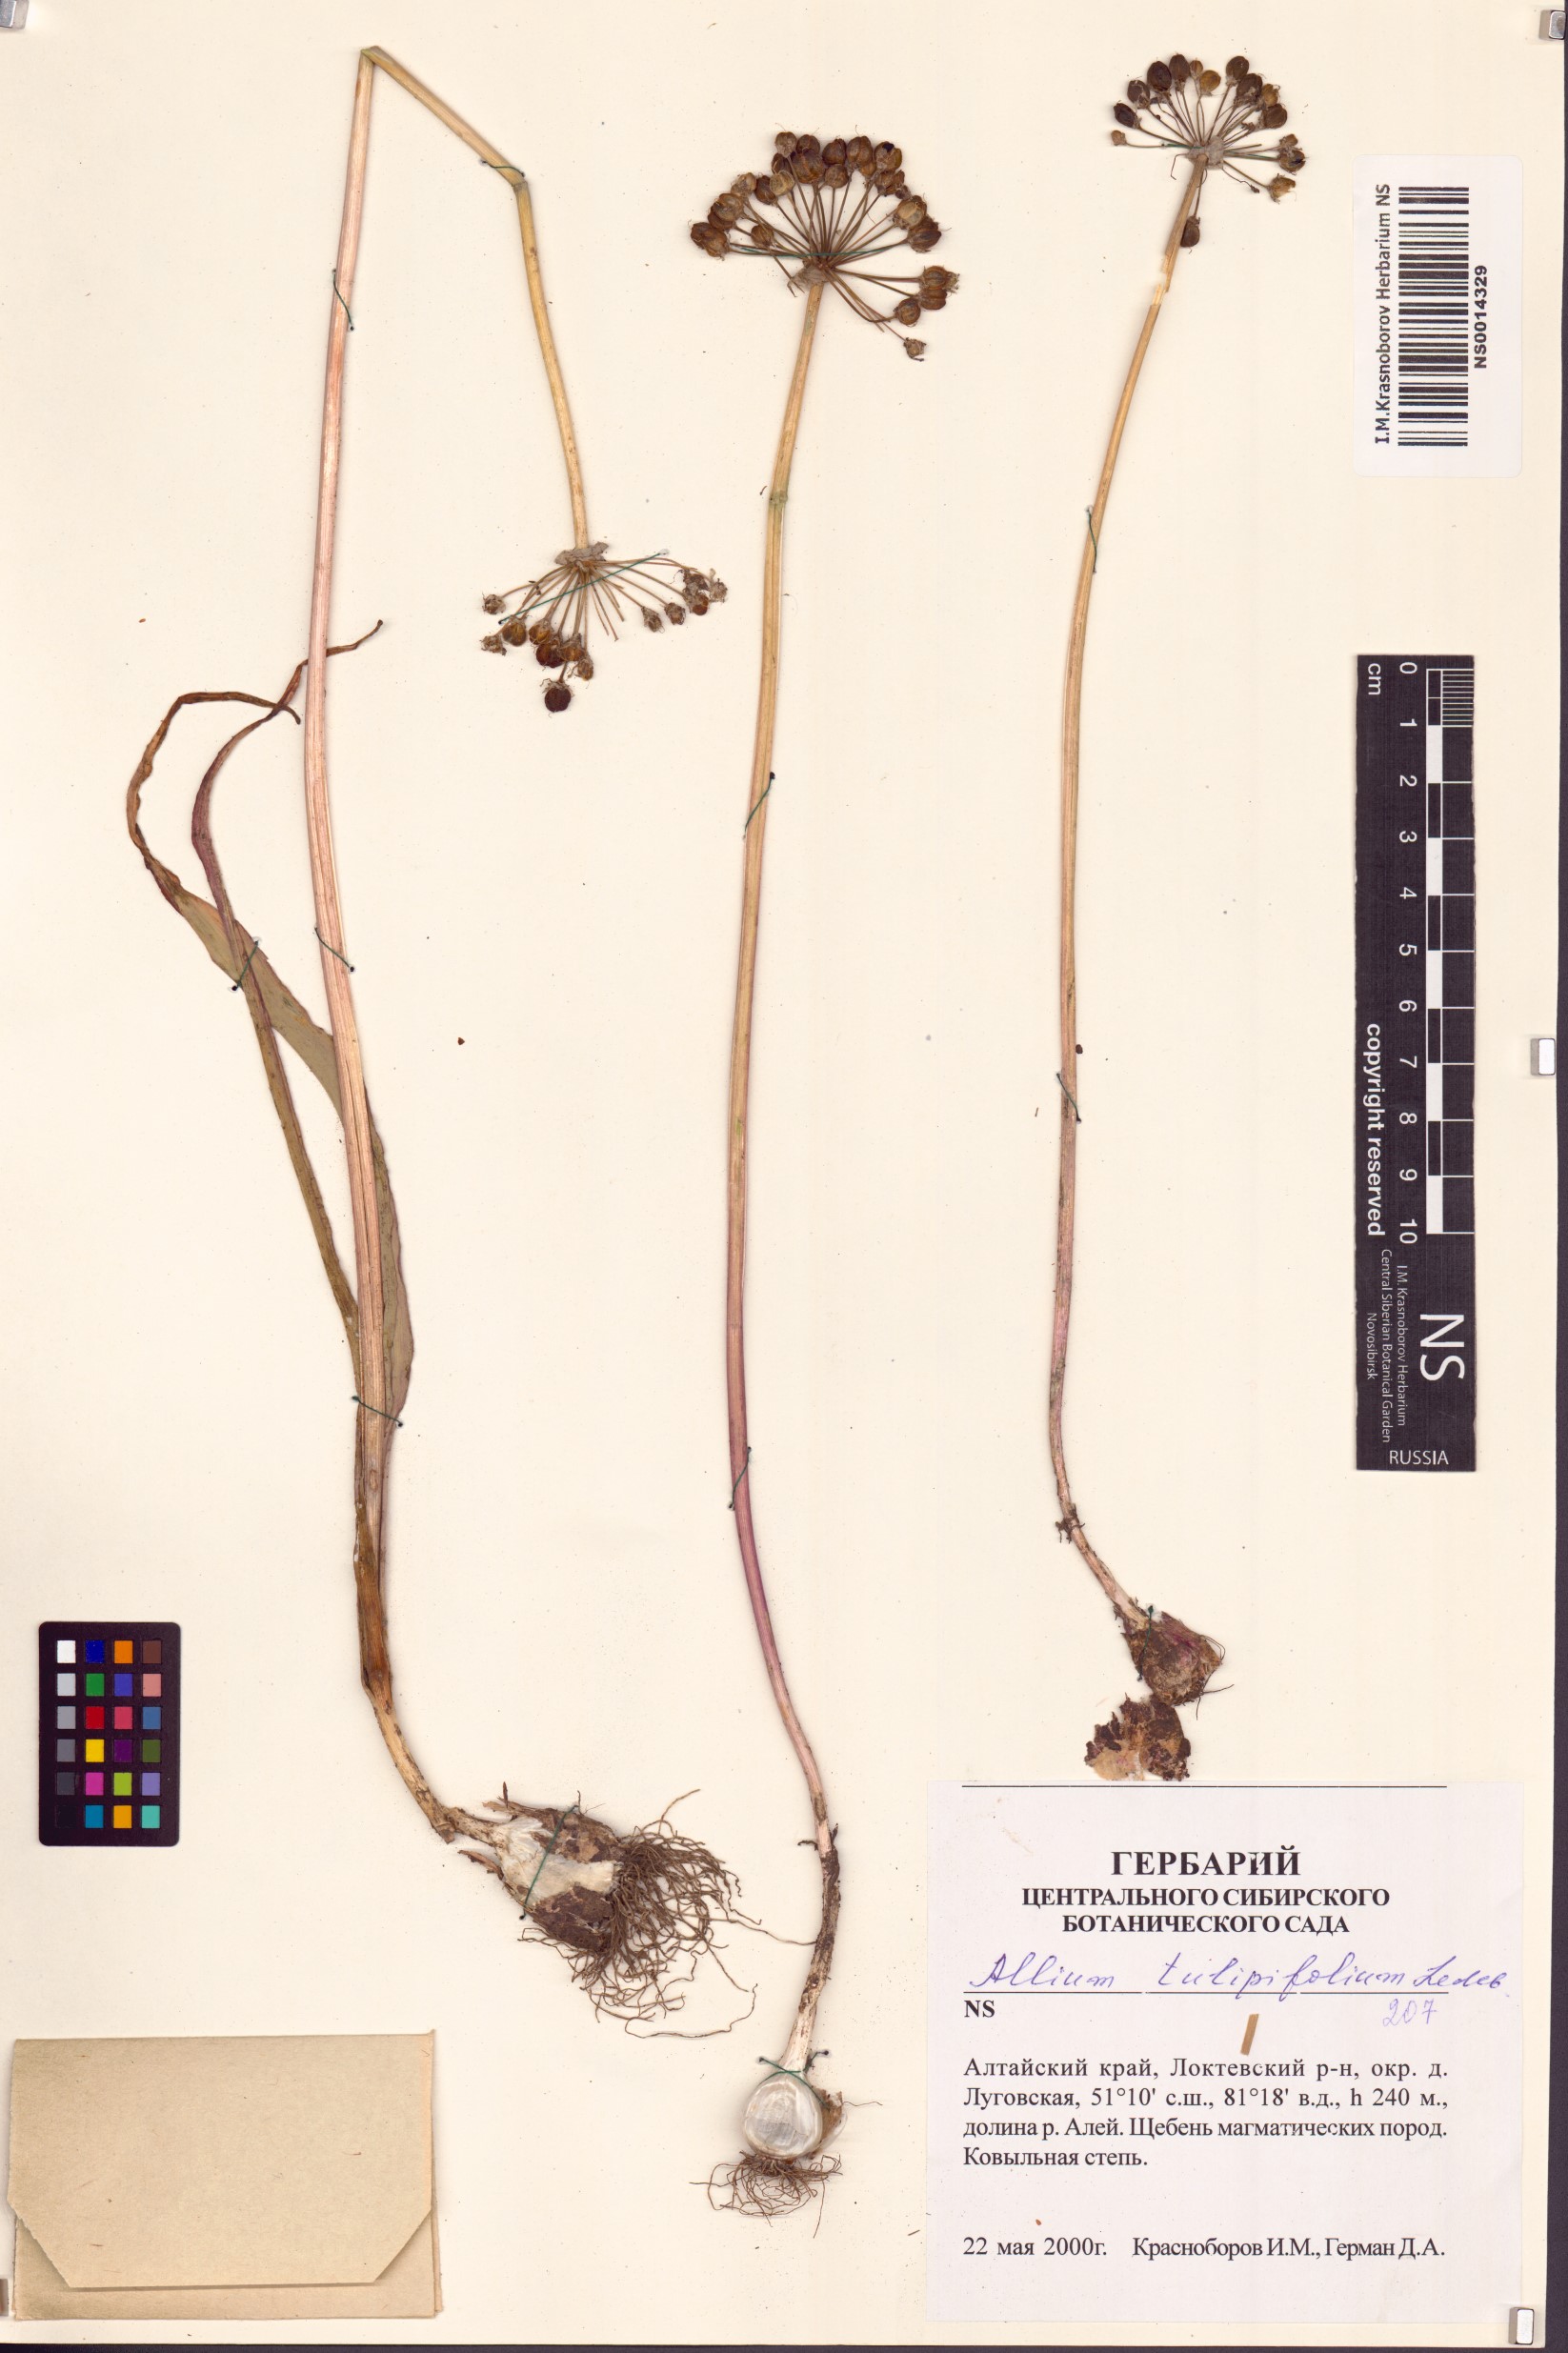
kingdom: Plantae
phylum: Tracheophyta
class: Liliopsida
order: Asparagales
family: Amaryllidaceae
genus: Allium
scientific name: Allium tulipifolium
